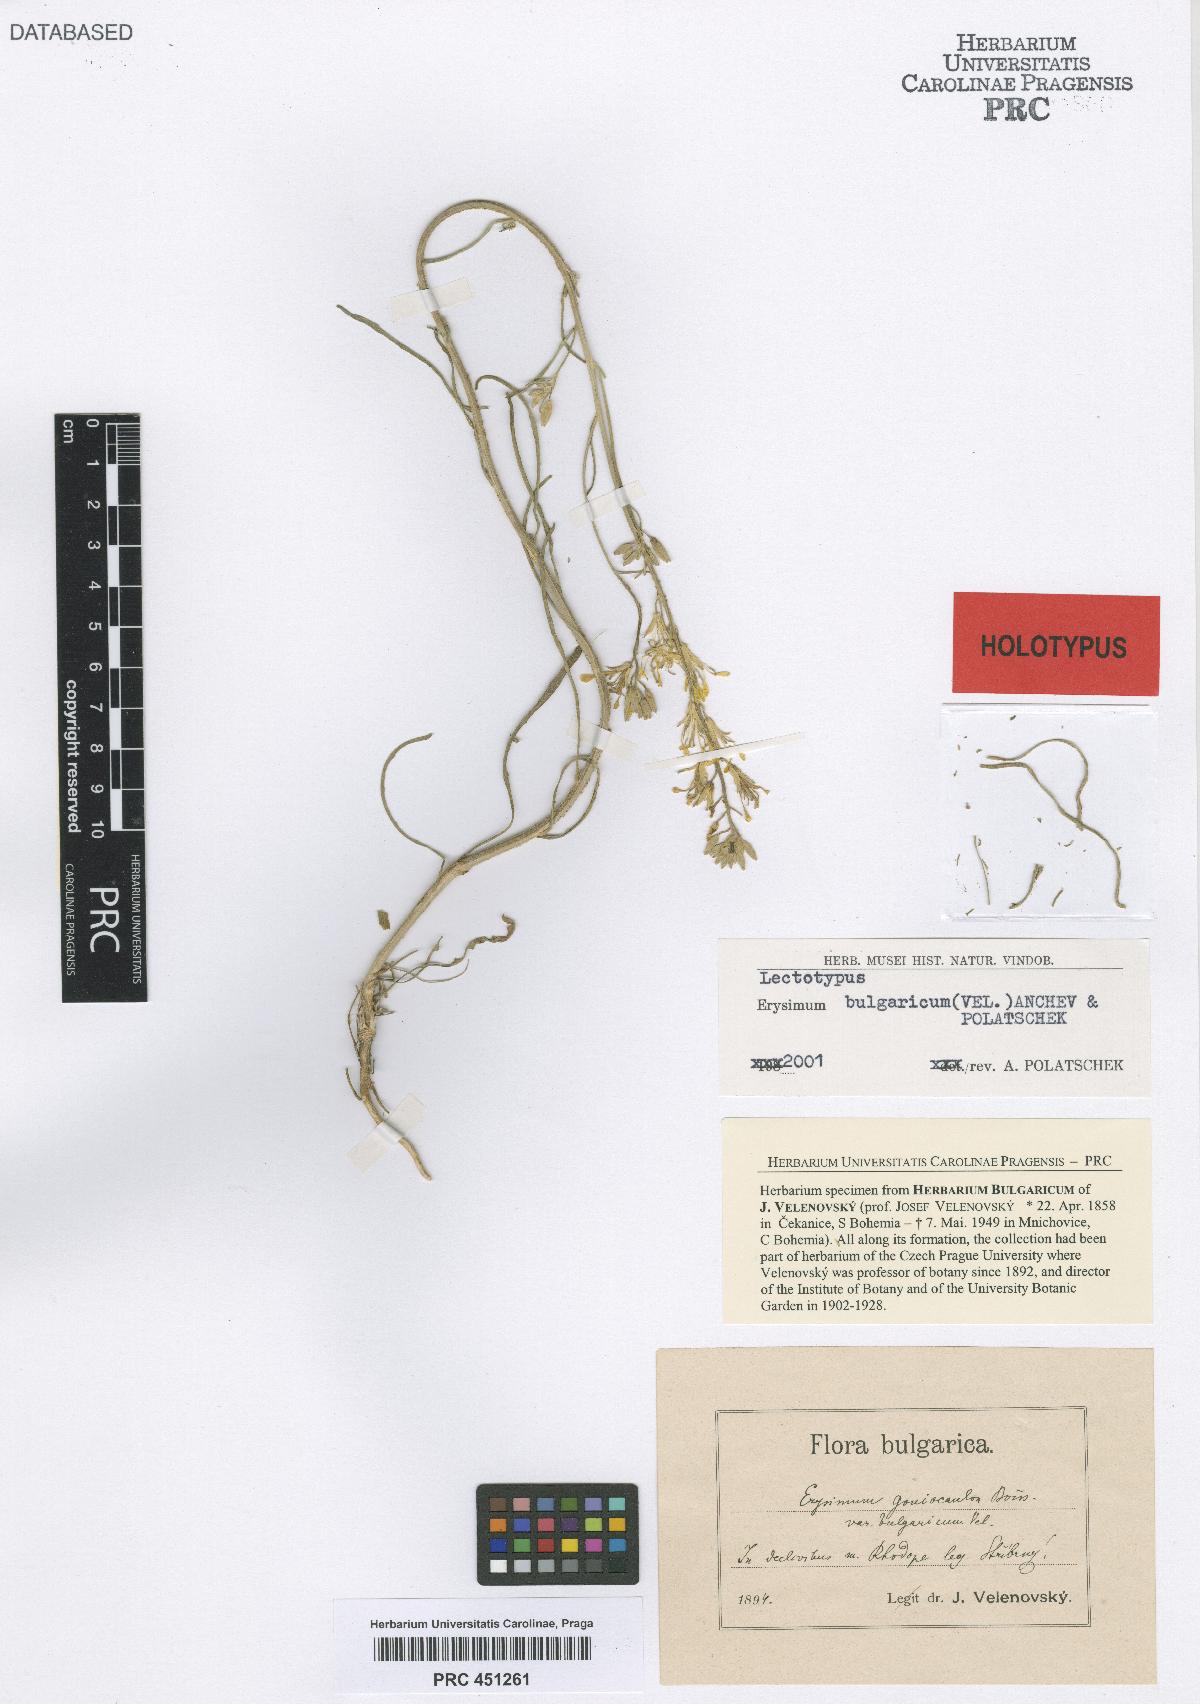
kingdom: Plantae
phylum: Tracheophyta
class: Magnoliopsida
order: Brassicales
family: Brassicaceae
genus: Erysimum
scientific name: Erysimum bulgaricum
